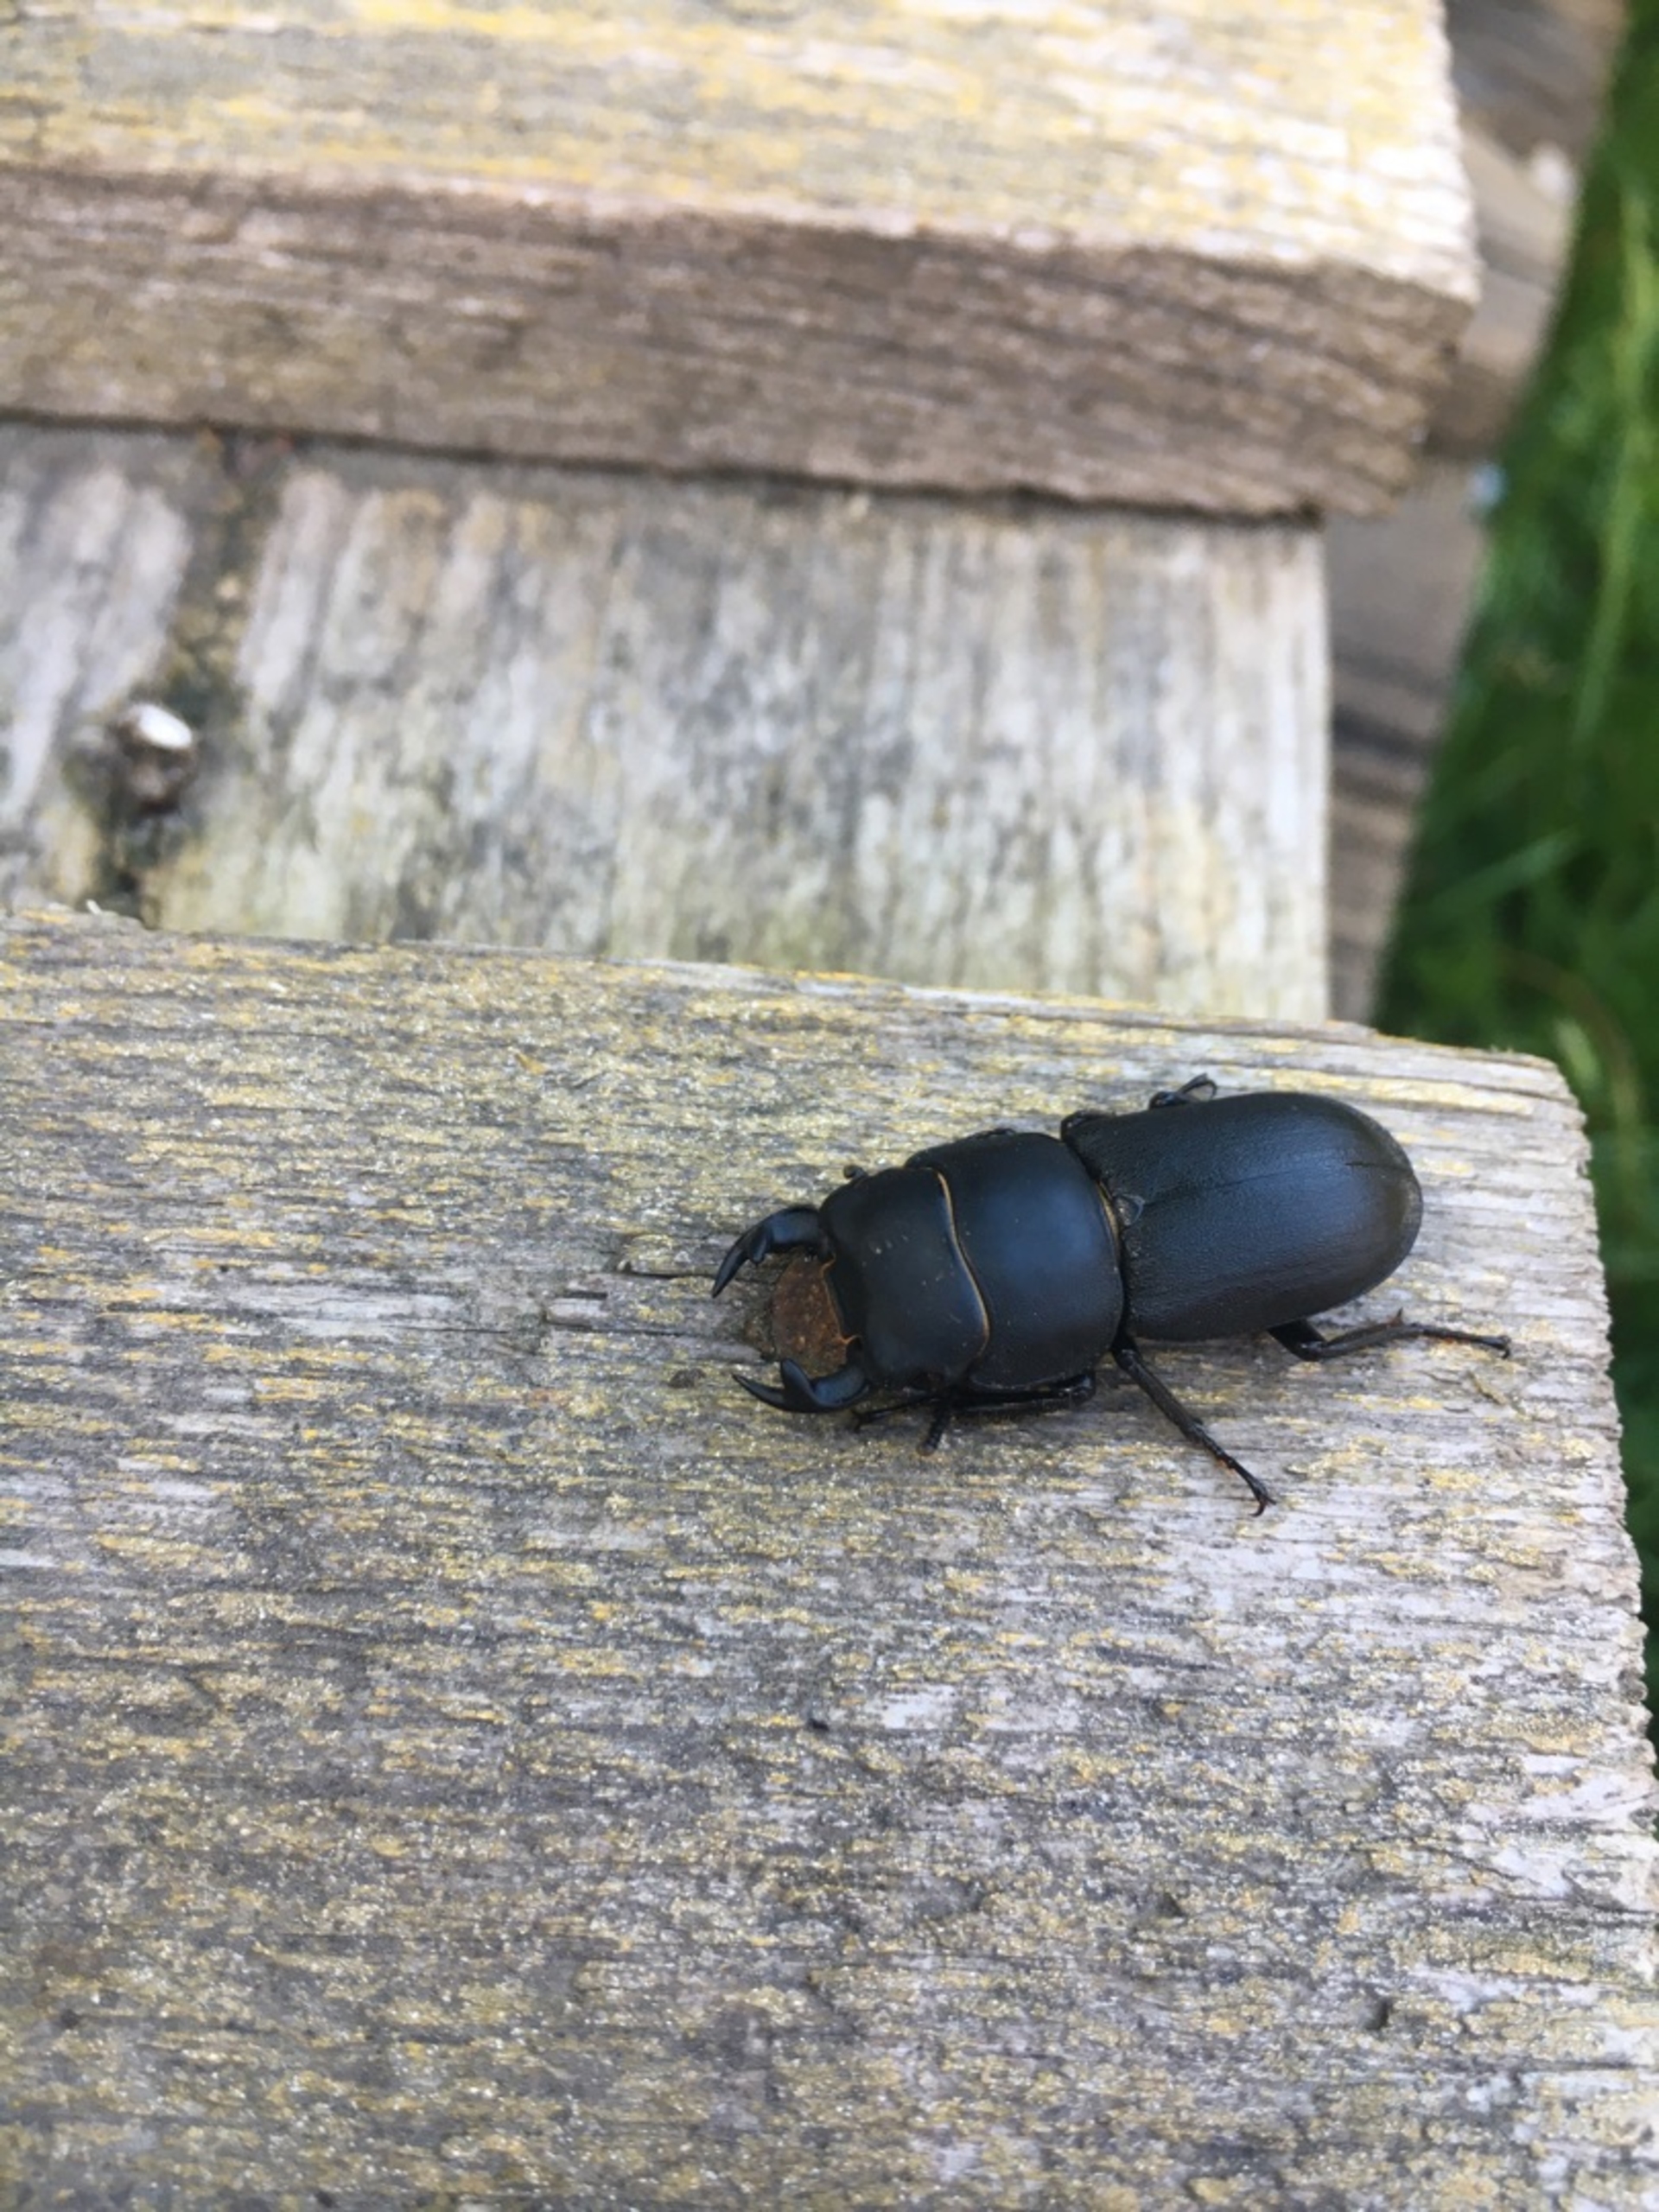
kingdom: Animalia
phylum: Arthropoda
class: Insecta
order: Coleoptera
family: Lucanidae
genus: Dorcus
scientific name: Dorcus parallelipipedus
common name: Bøghjort
